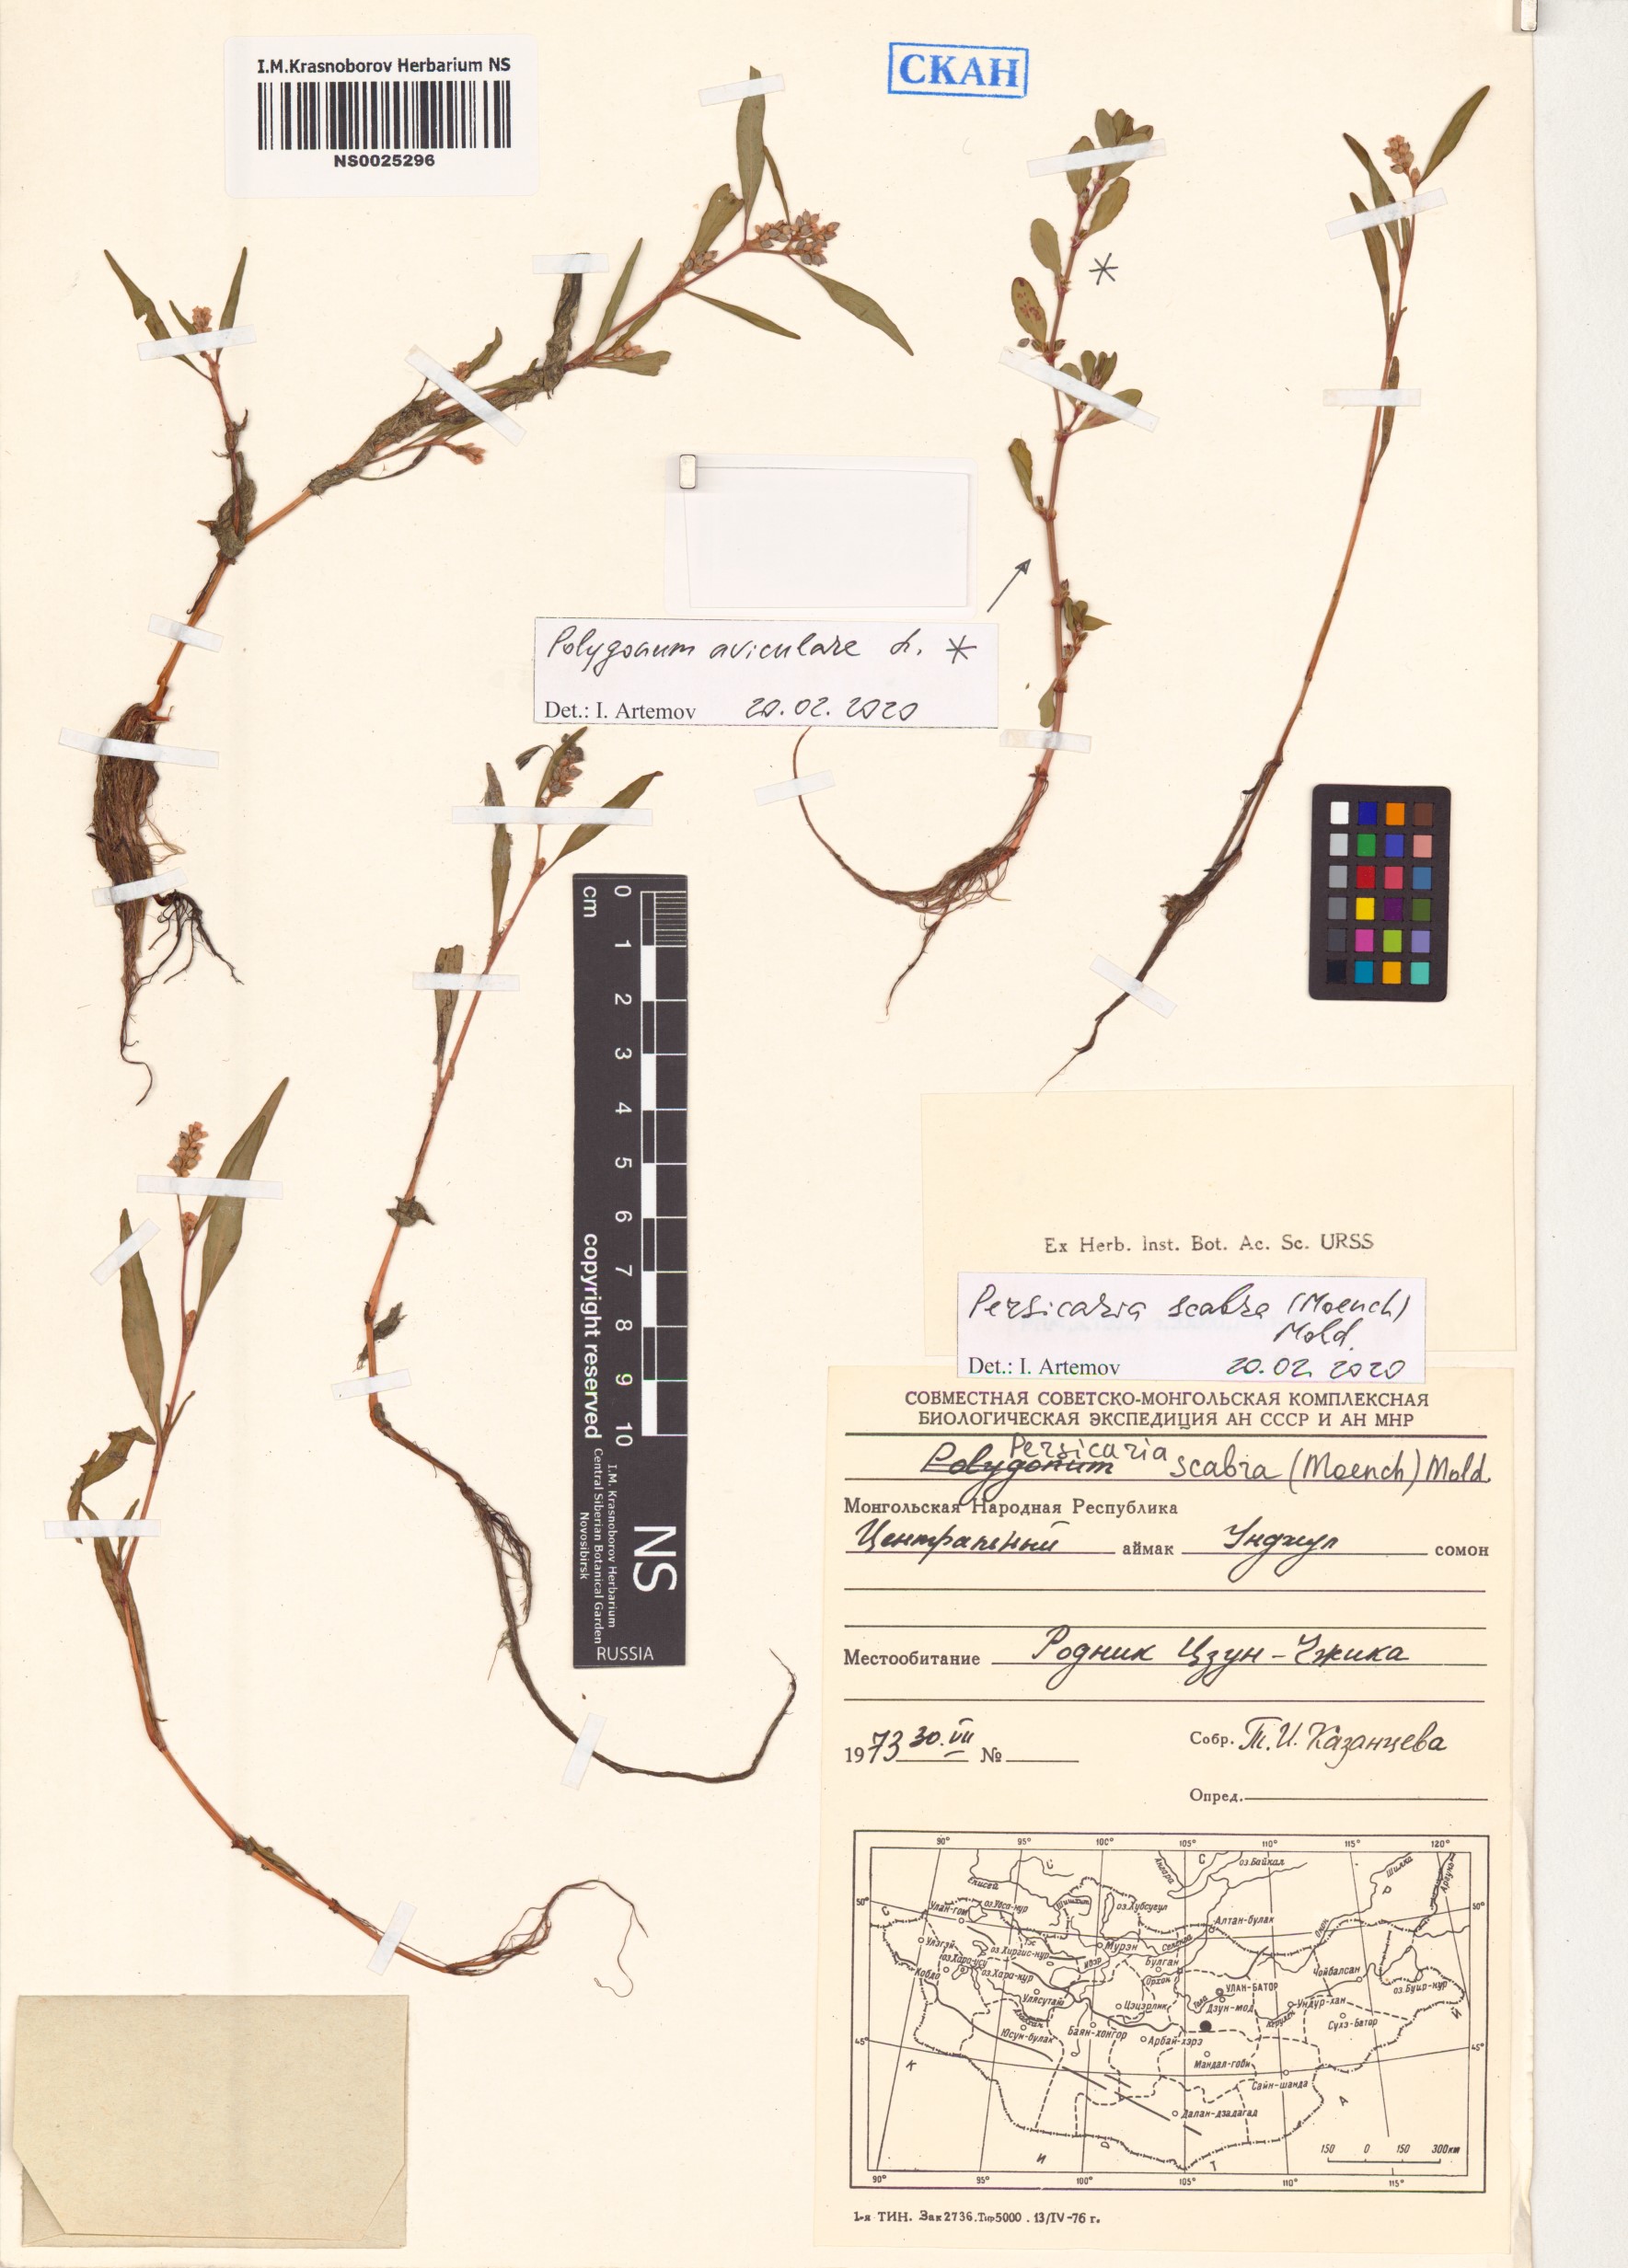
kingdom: Plantae
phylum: Tracheophyta
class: Magnoliopsida
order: Caryophyllales
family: Polygonaceae
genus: Persicaria
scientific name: Persicaria
